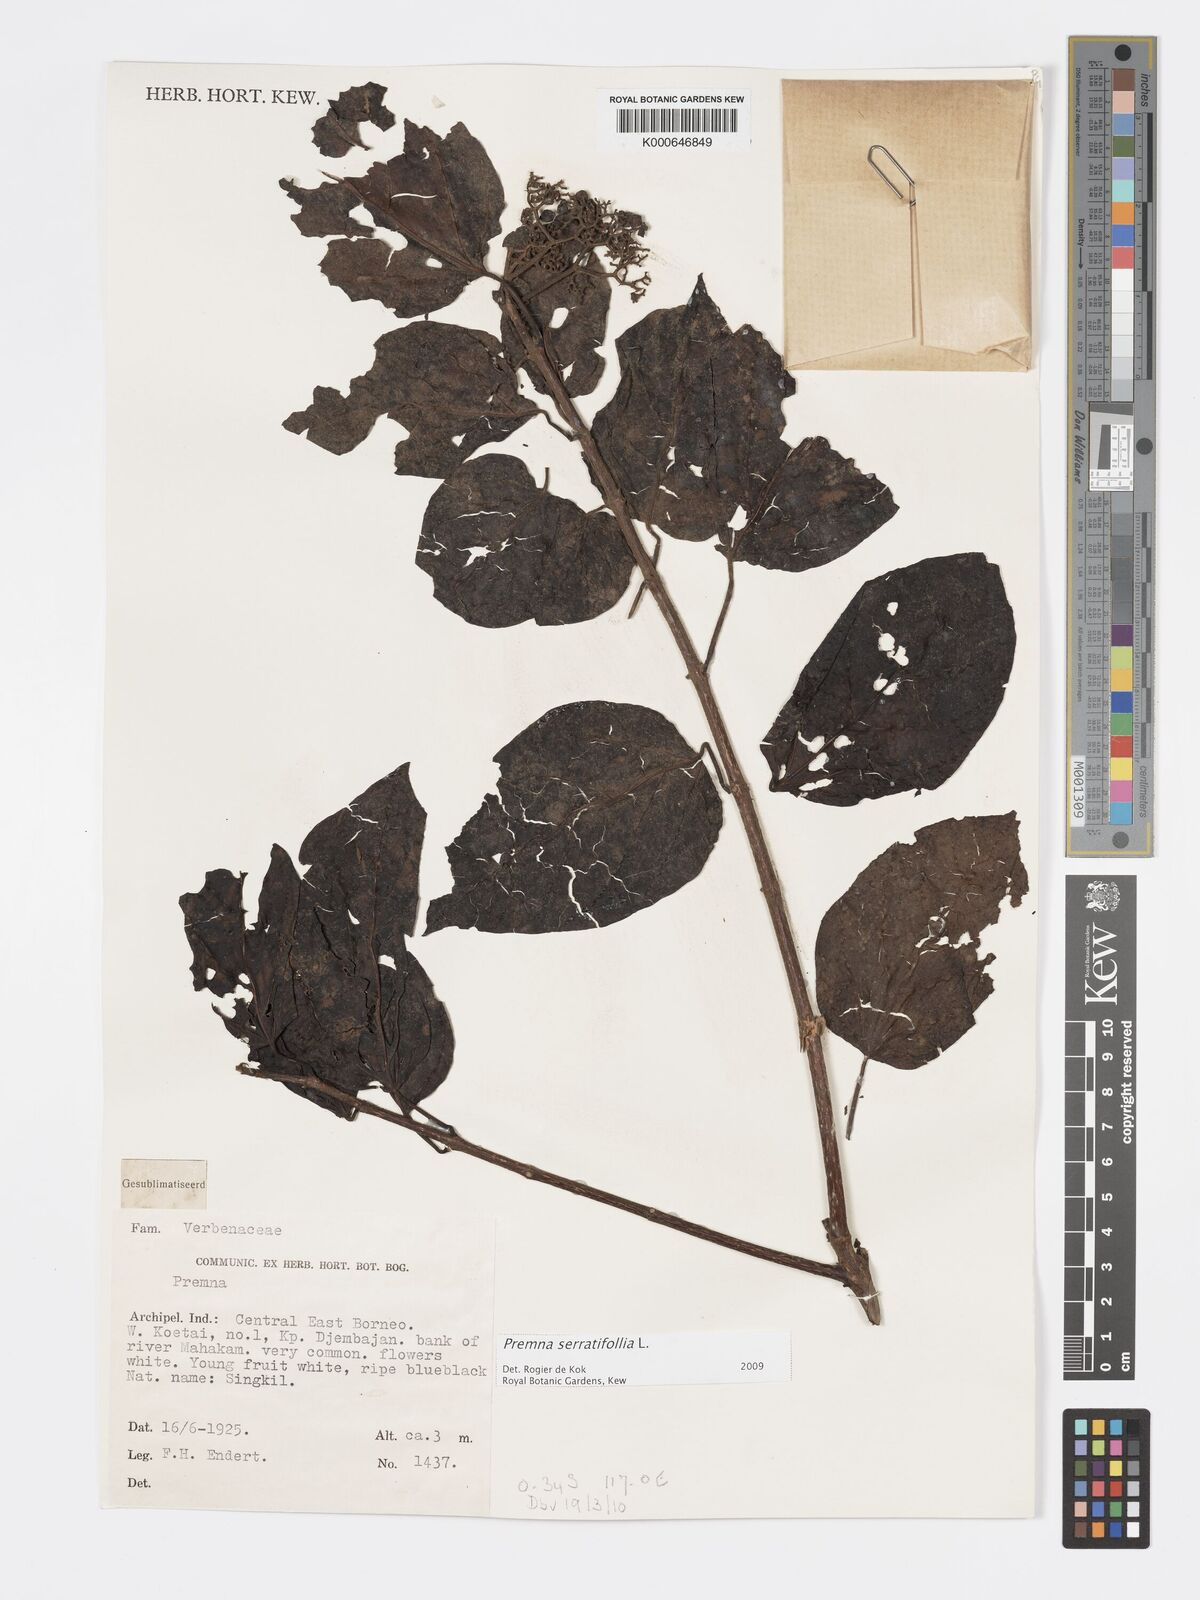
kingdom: Plantae
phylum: Tracheophyta
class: Magnoliopsida
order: Lamiales
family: Lamiaceae
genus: Premna
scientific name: Premna serratifolia
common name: Bastard guelder
